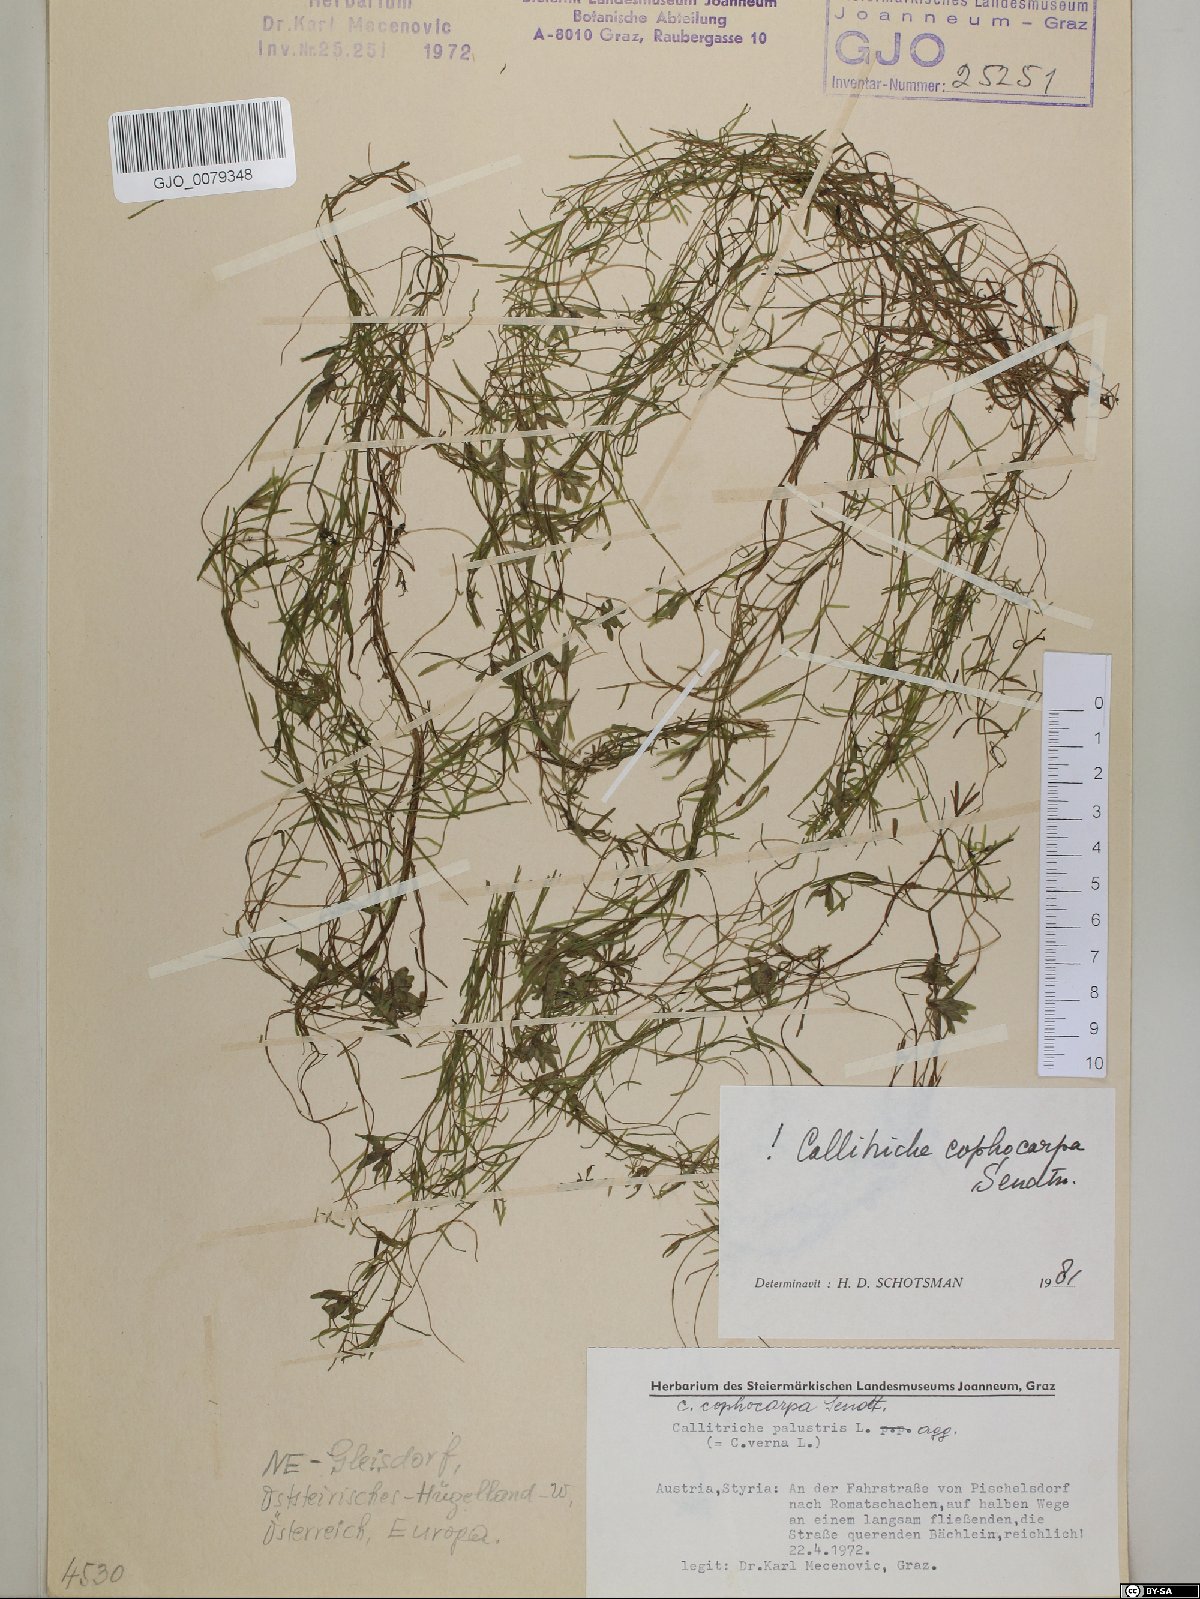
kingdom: Plantae
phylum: Tracheophyta
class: Magnoliopsida
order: Lamiales
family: Plantaginaceae
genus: Callitriche
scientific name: Callitriche cophocarpa
